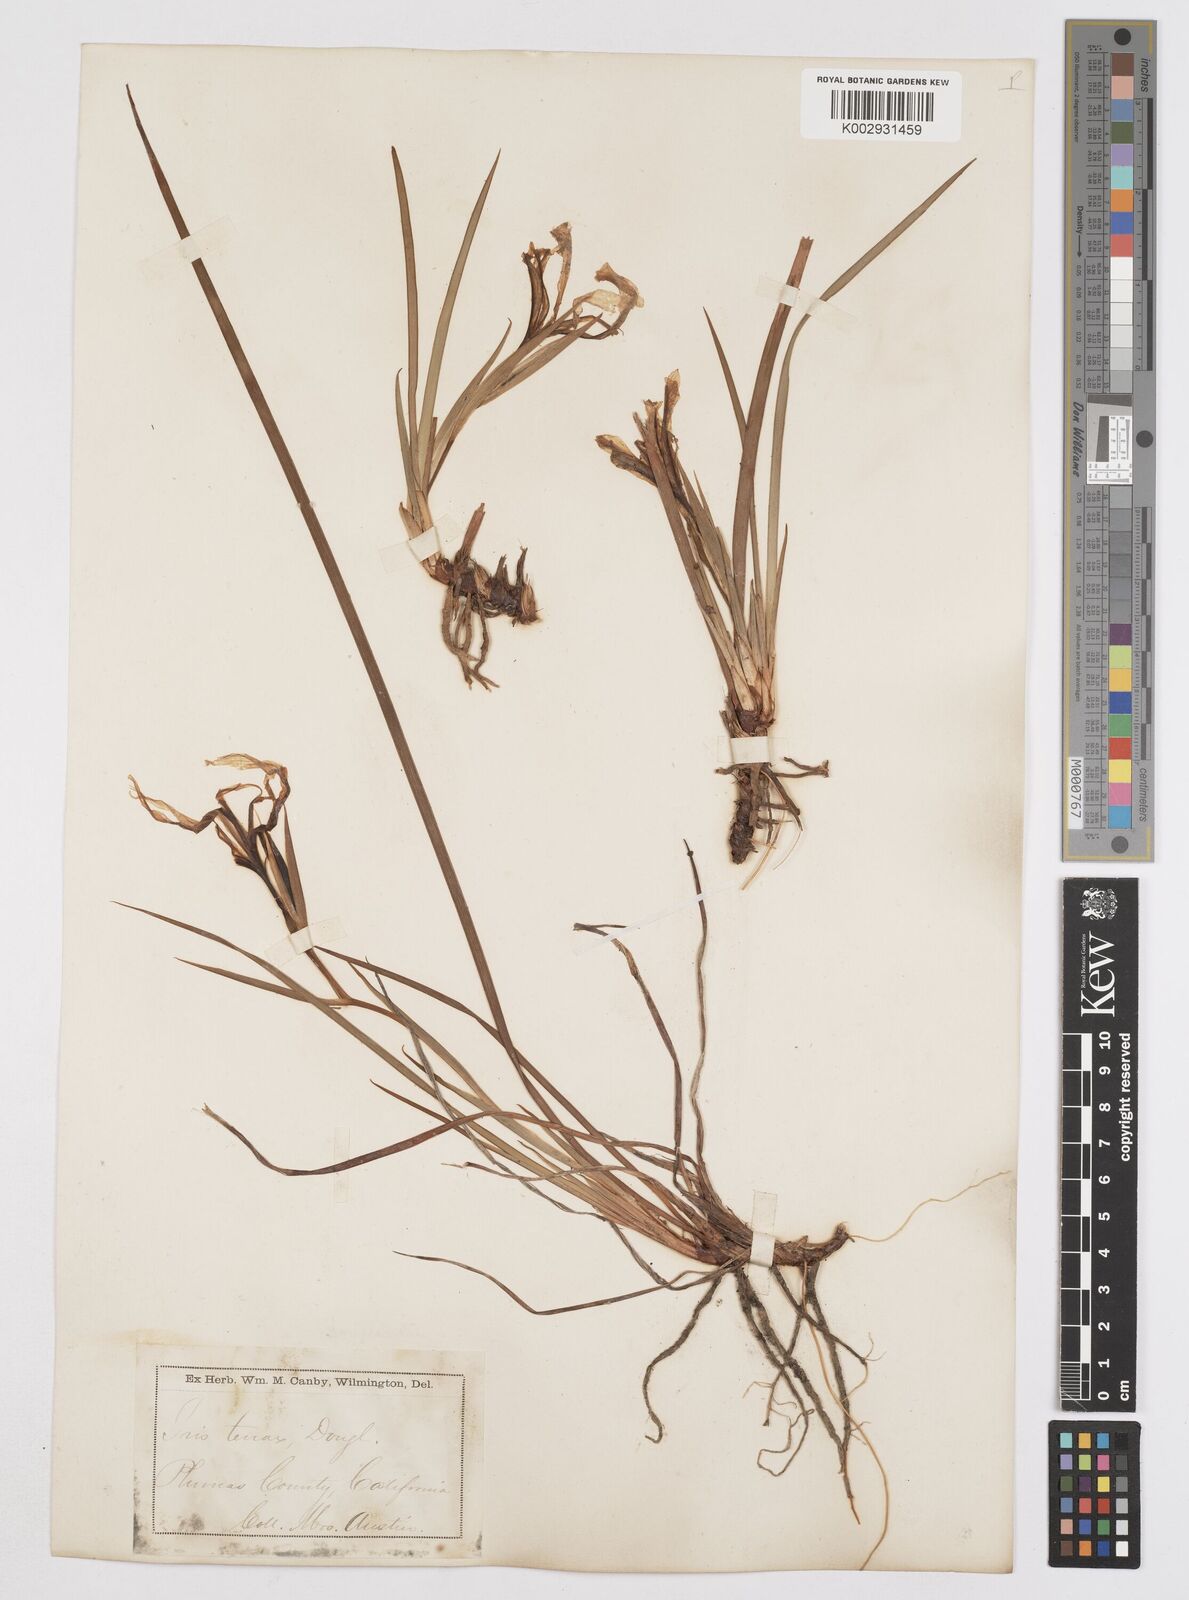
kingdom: Plantae
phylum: Tracheophyta
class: Liliopsida
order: Asparagales
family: Iridaceae
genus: Iris
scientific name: Iris hartwegii
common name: Sierra iris
